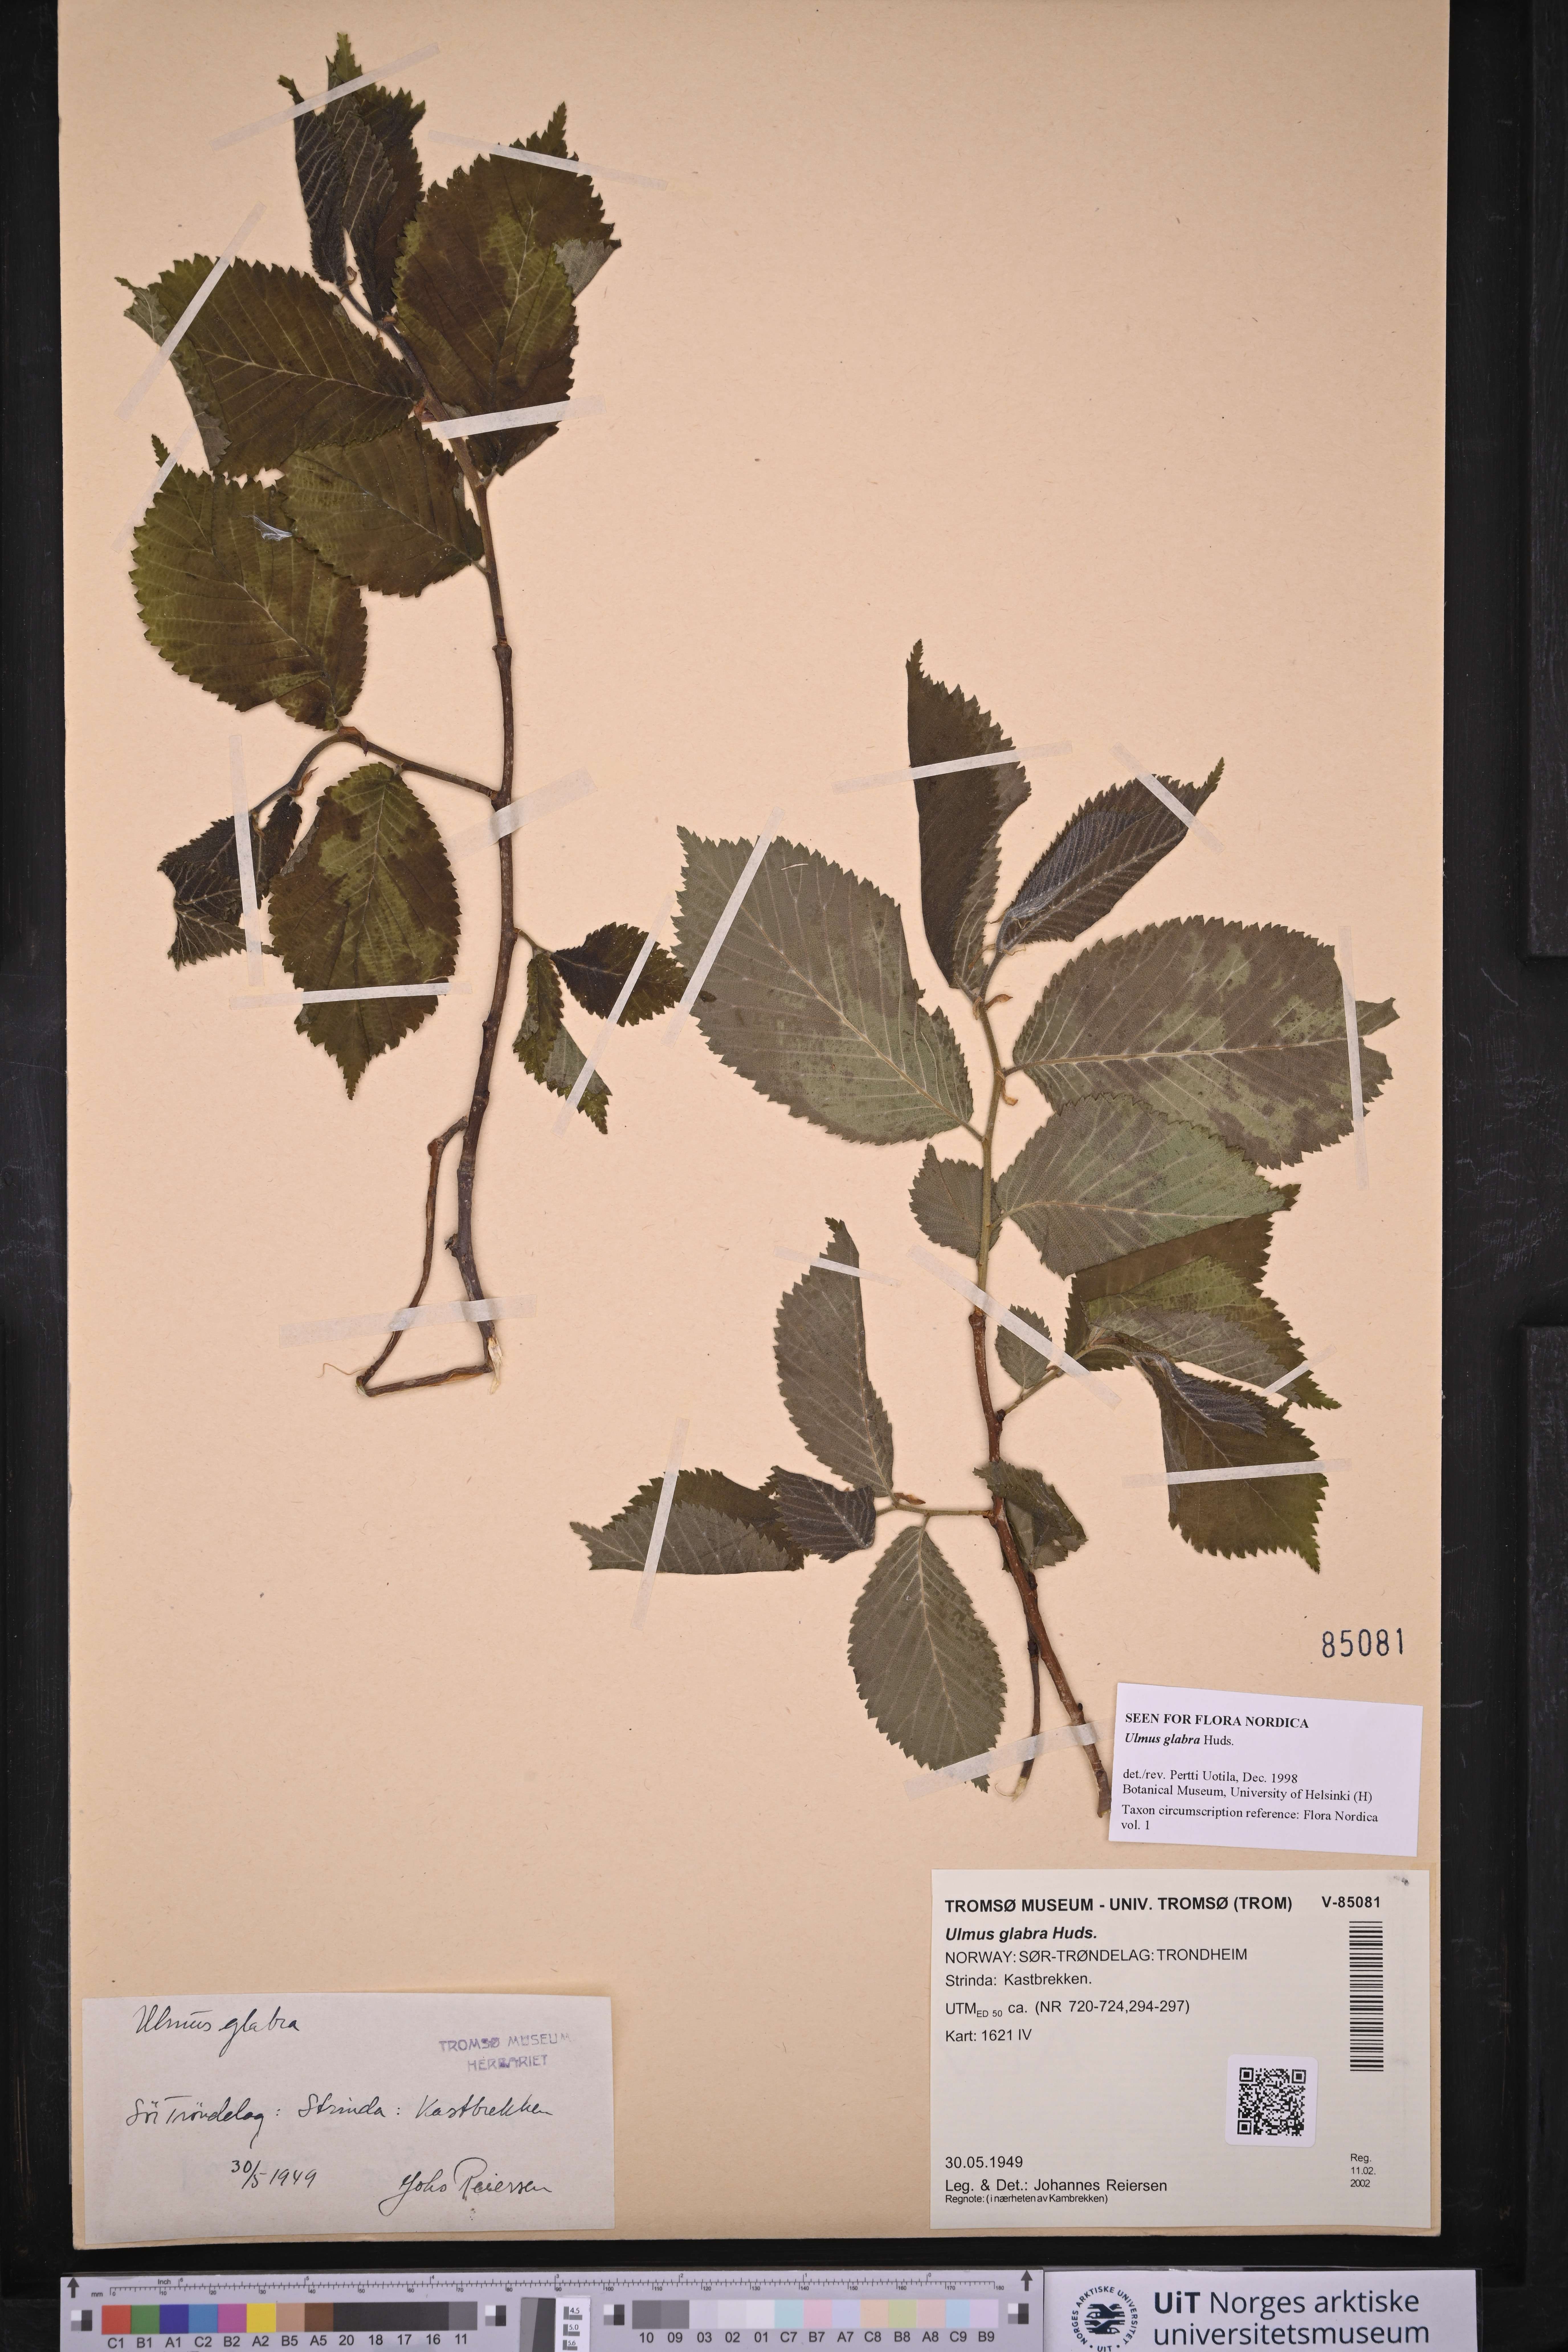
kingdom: Plantae
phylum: Tracheophyta
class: Magnoliopsida
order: Rosales
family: Ulmaceae
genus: Ulmus
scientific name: Ulmus glabra
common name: Wych elm
